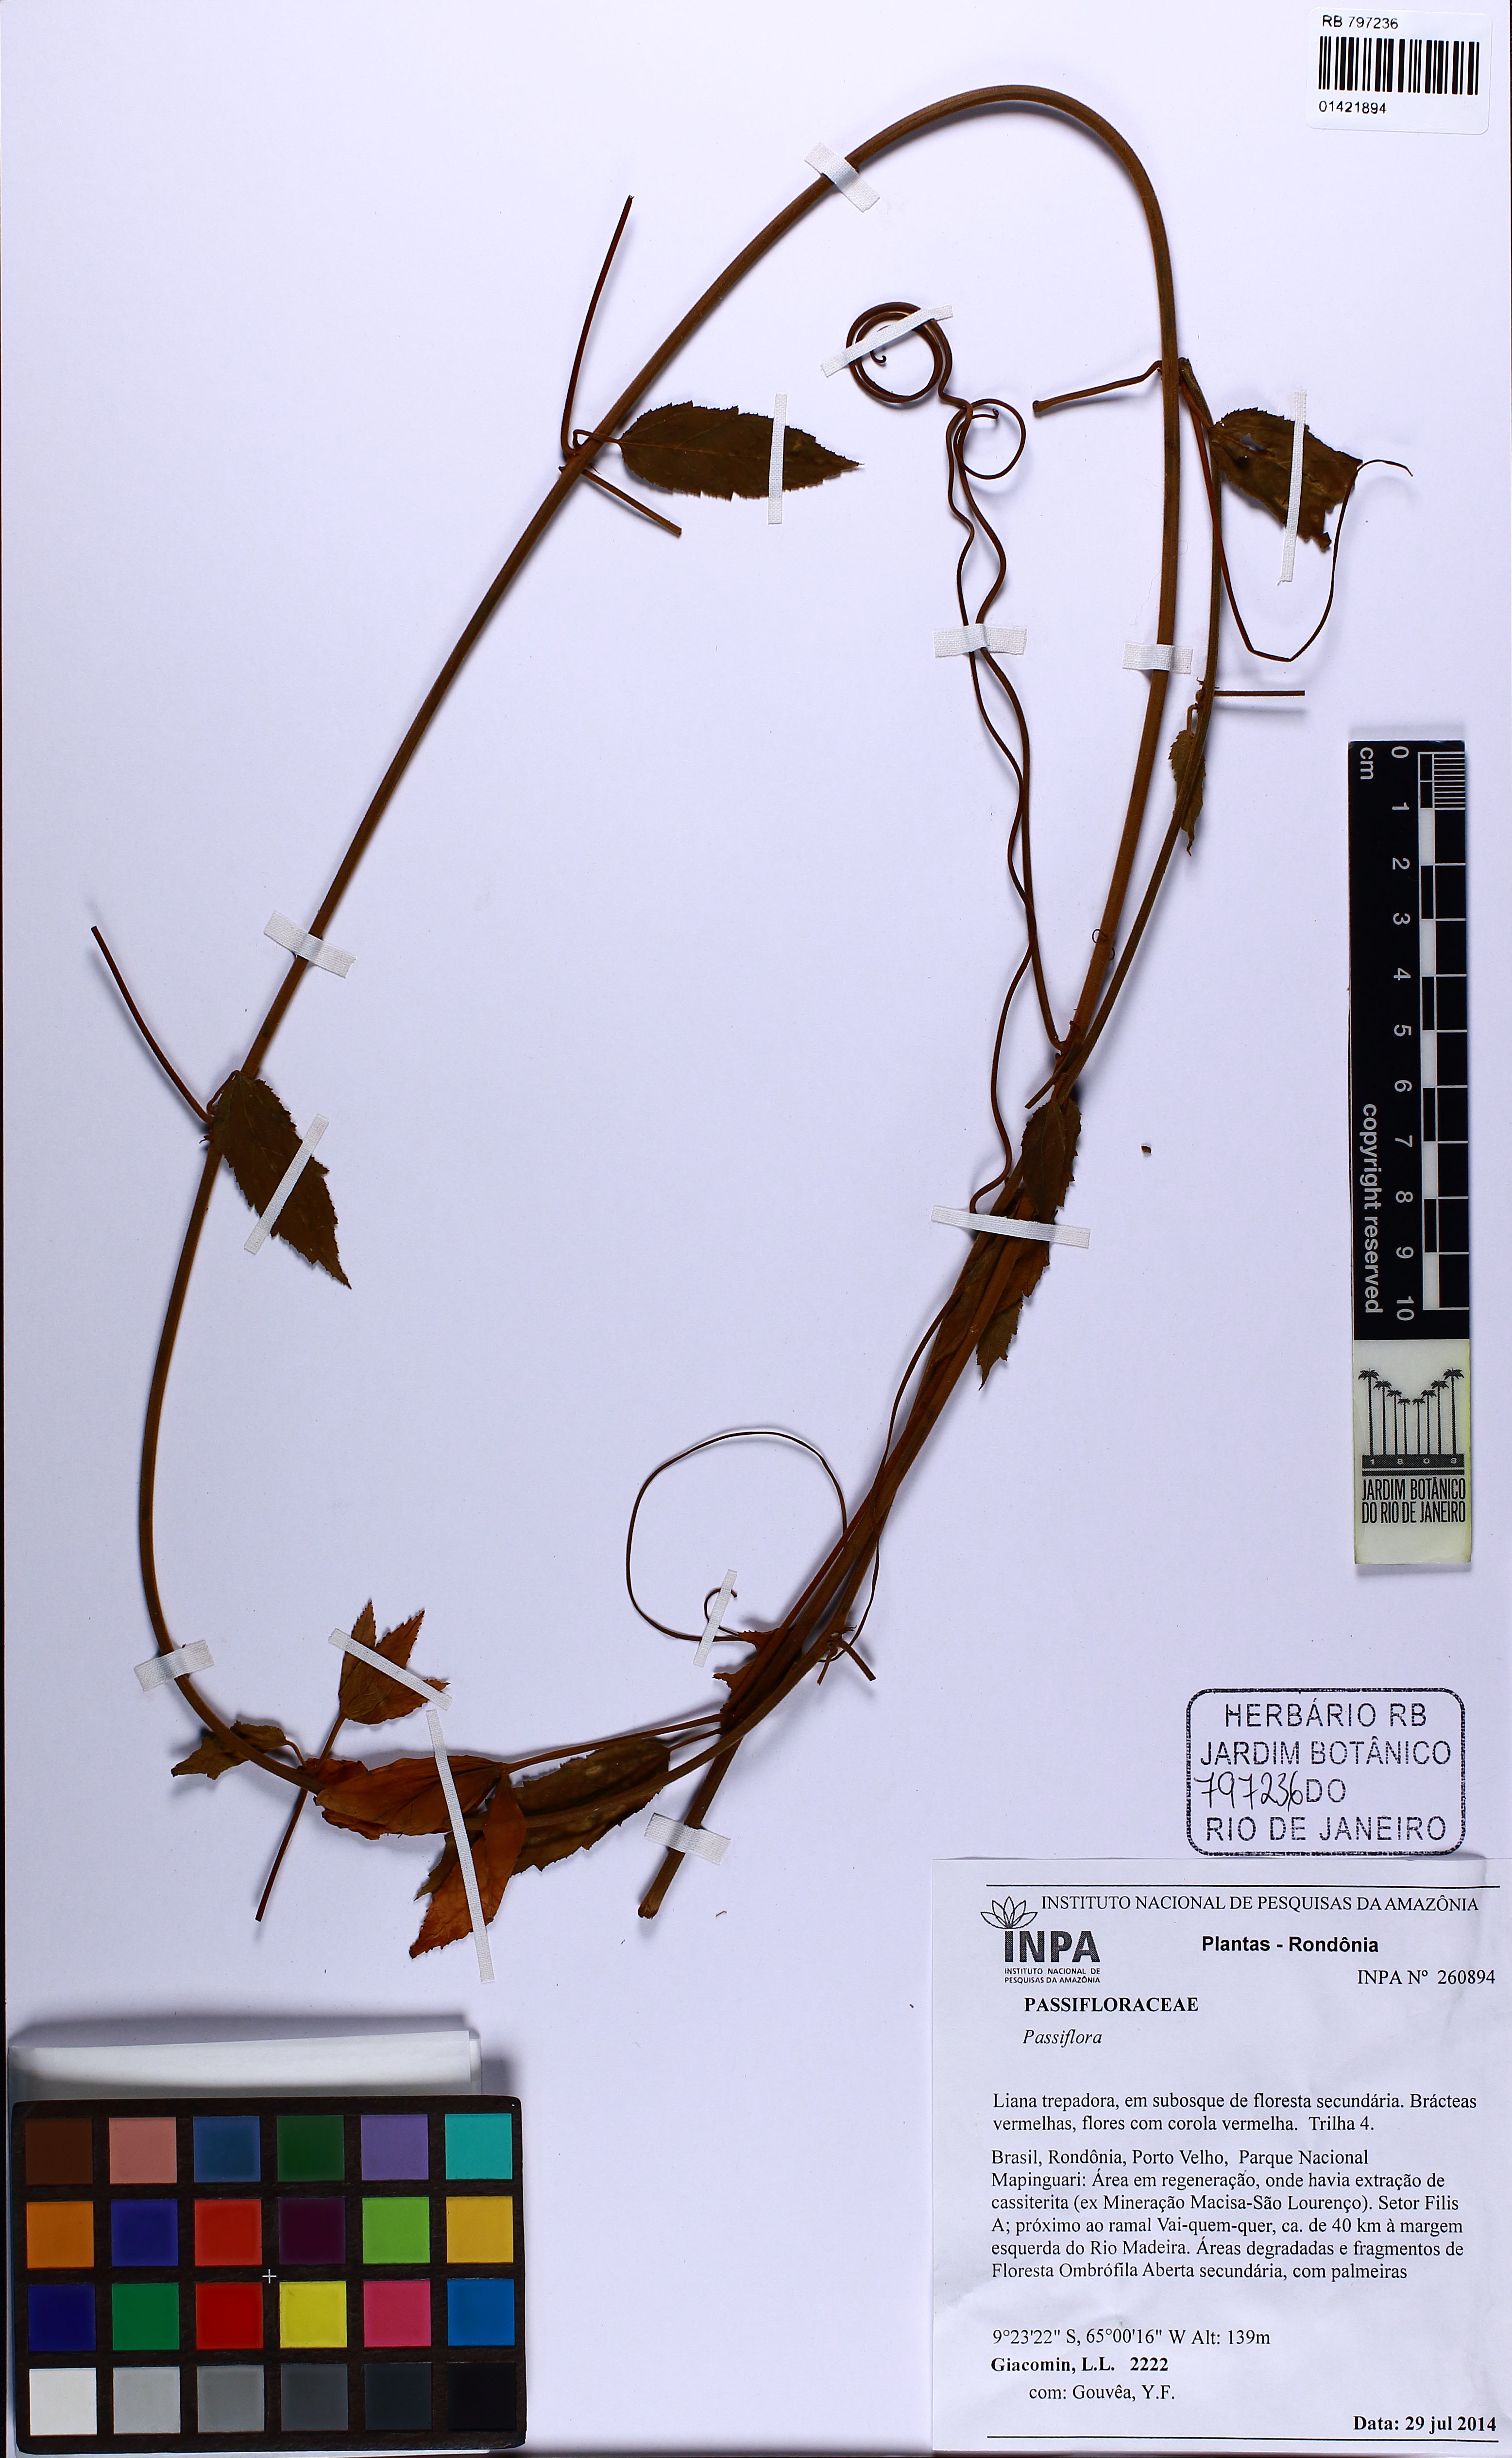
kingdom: Plantae
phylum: Tracheophyta
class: Magnoliopsida
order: Malpighiales
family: Passifloraceae
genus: Passiflora
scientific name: Passiflora tholozanii
